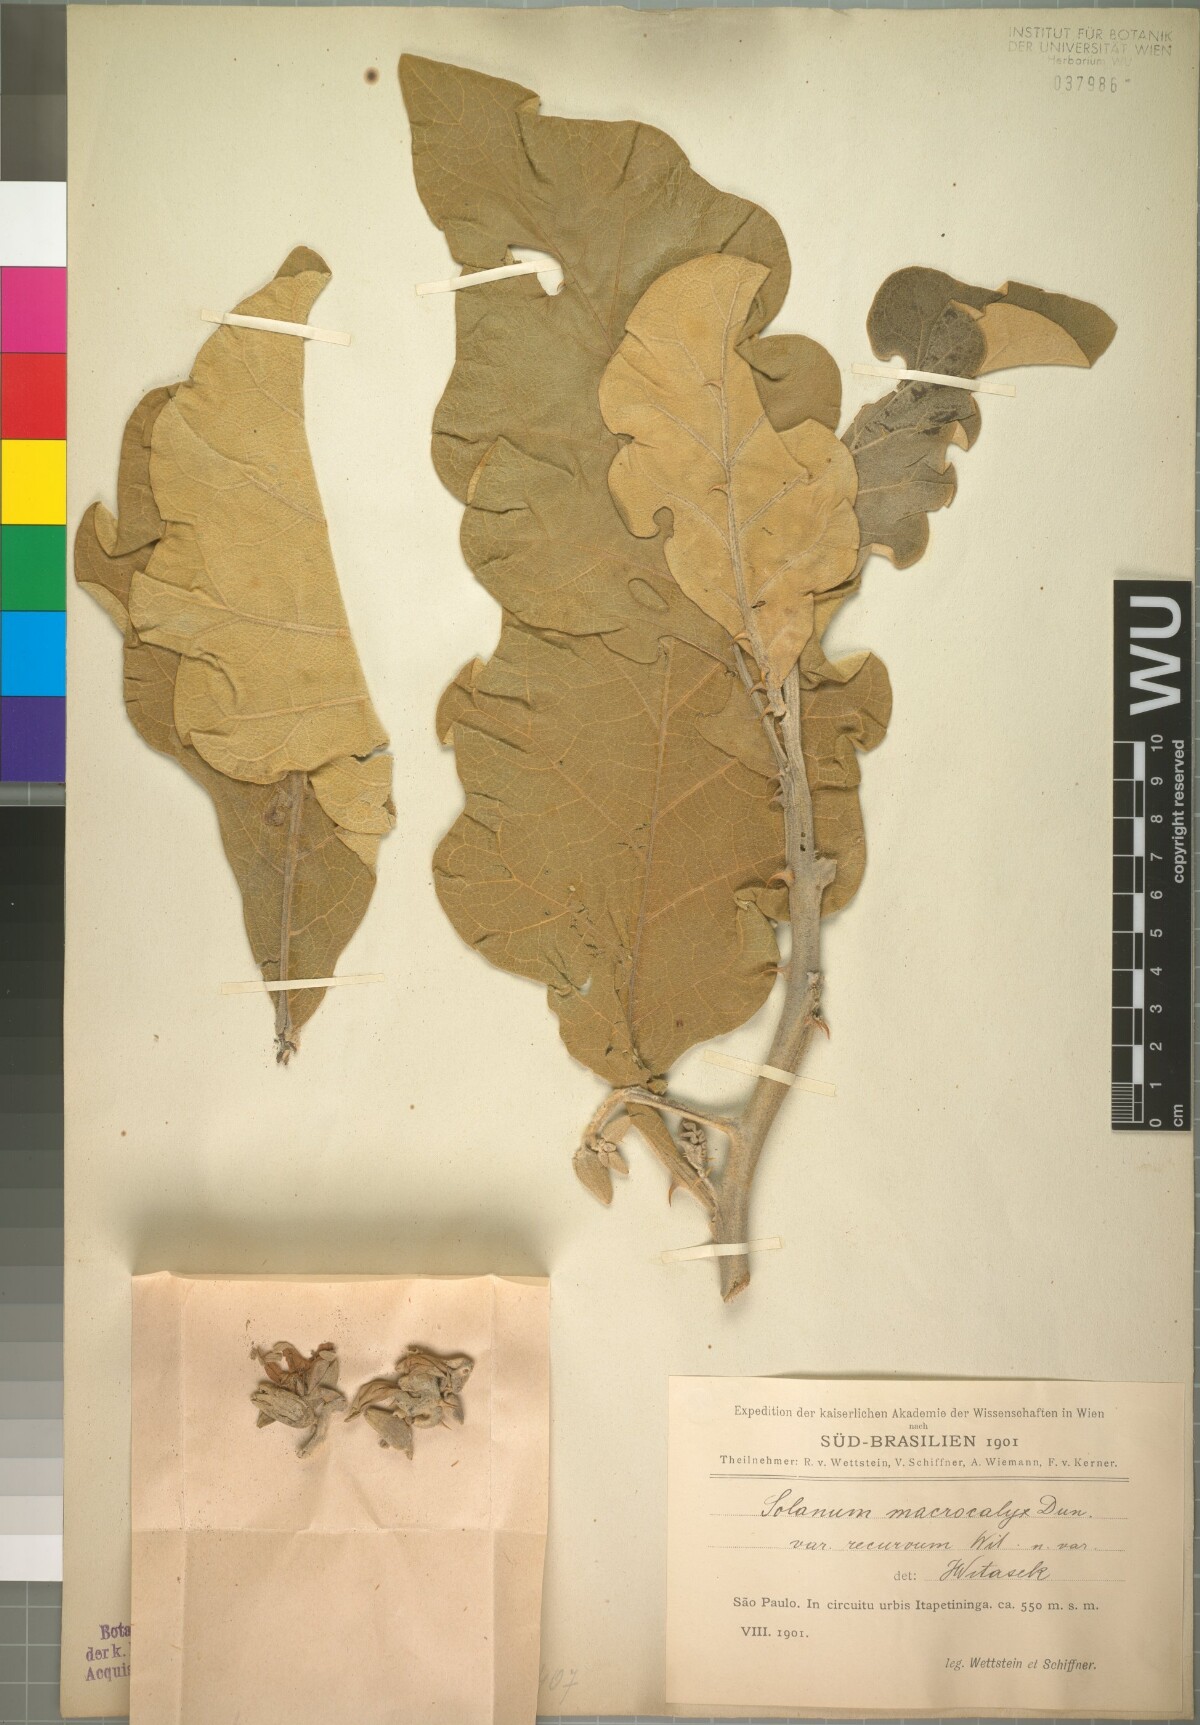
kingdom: Plantae
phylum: Tracheophyta
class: Magnoliopsida
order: Solanales
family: Solanaceae
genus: Solanum
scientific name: Solanum gomphodes
